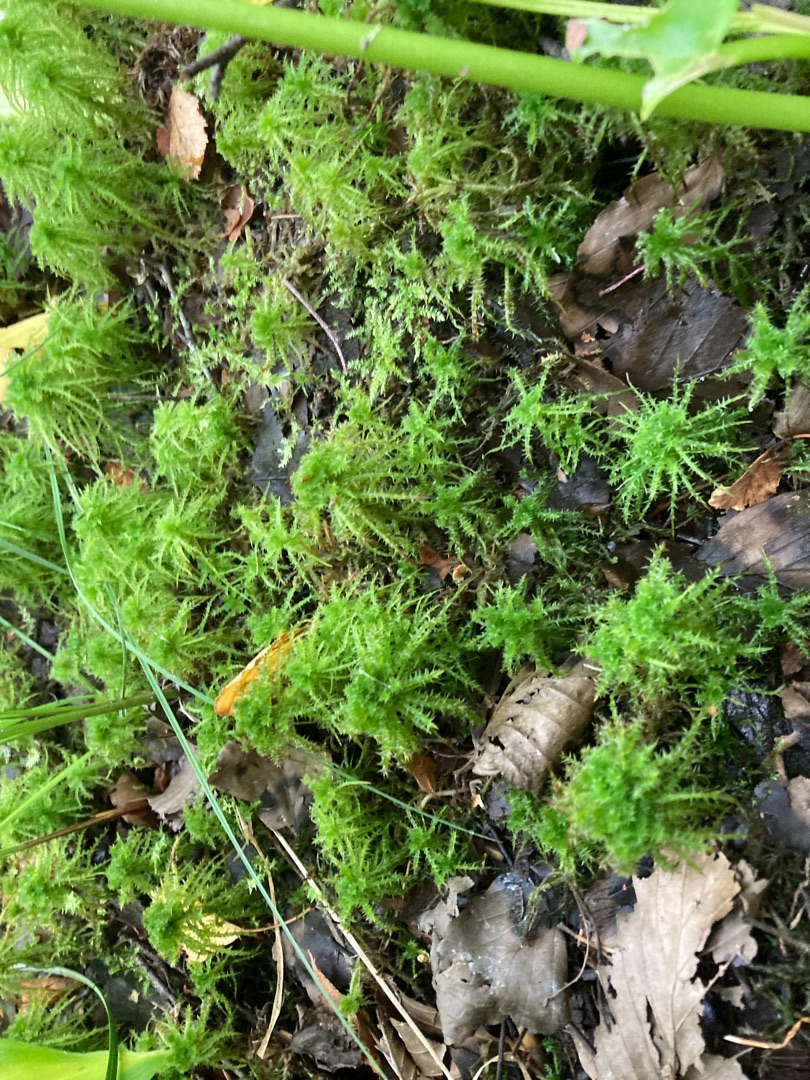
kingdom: Plantae
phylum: Bryophyta
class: Sphagnopsida
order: Sphagnales
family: Sphagnaceae
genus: Sphagnum
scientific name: Sphagnum squarrosum
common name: Udspærret tørvemos
